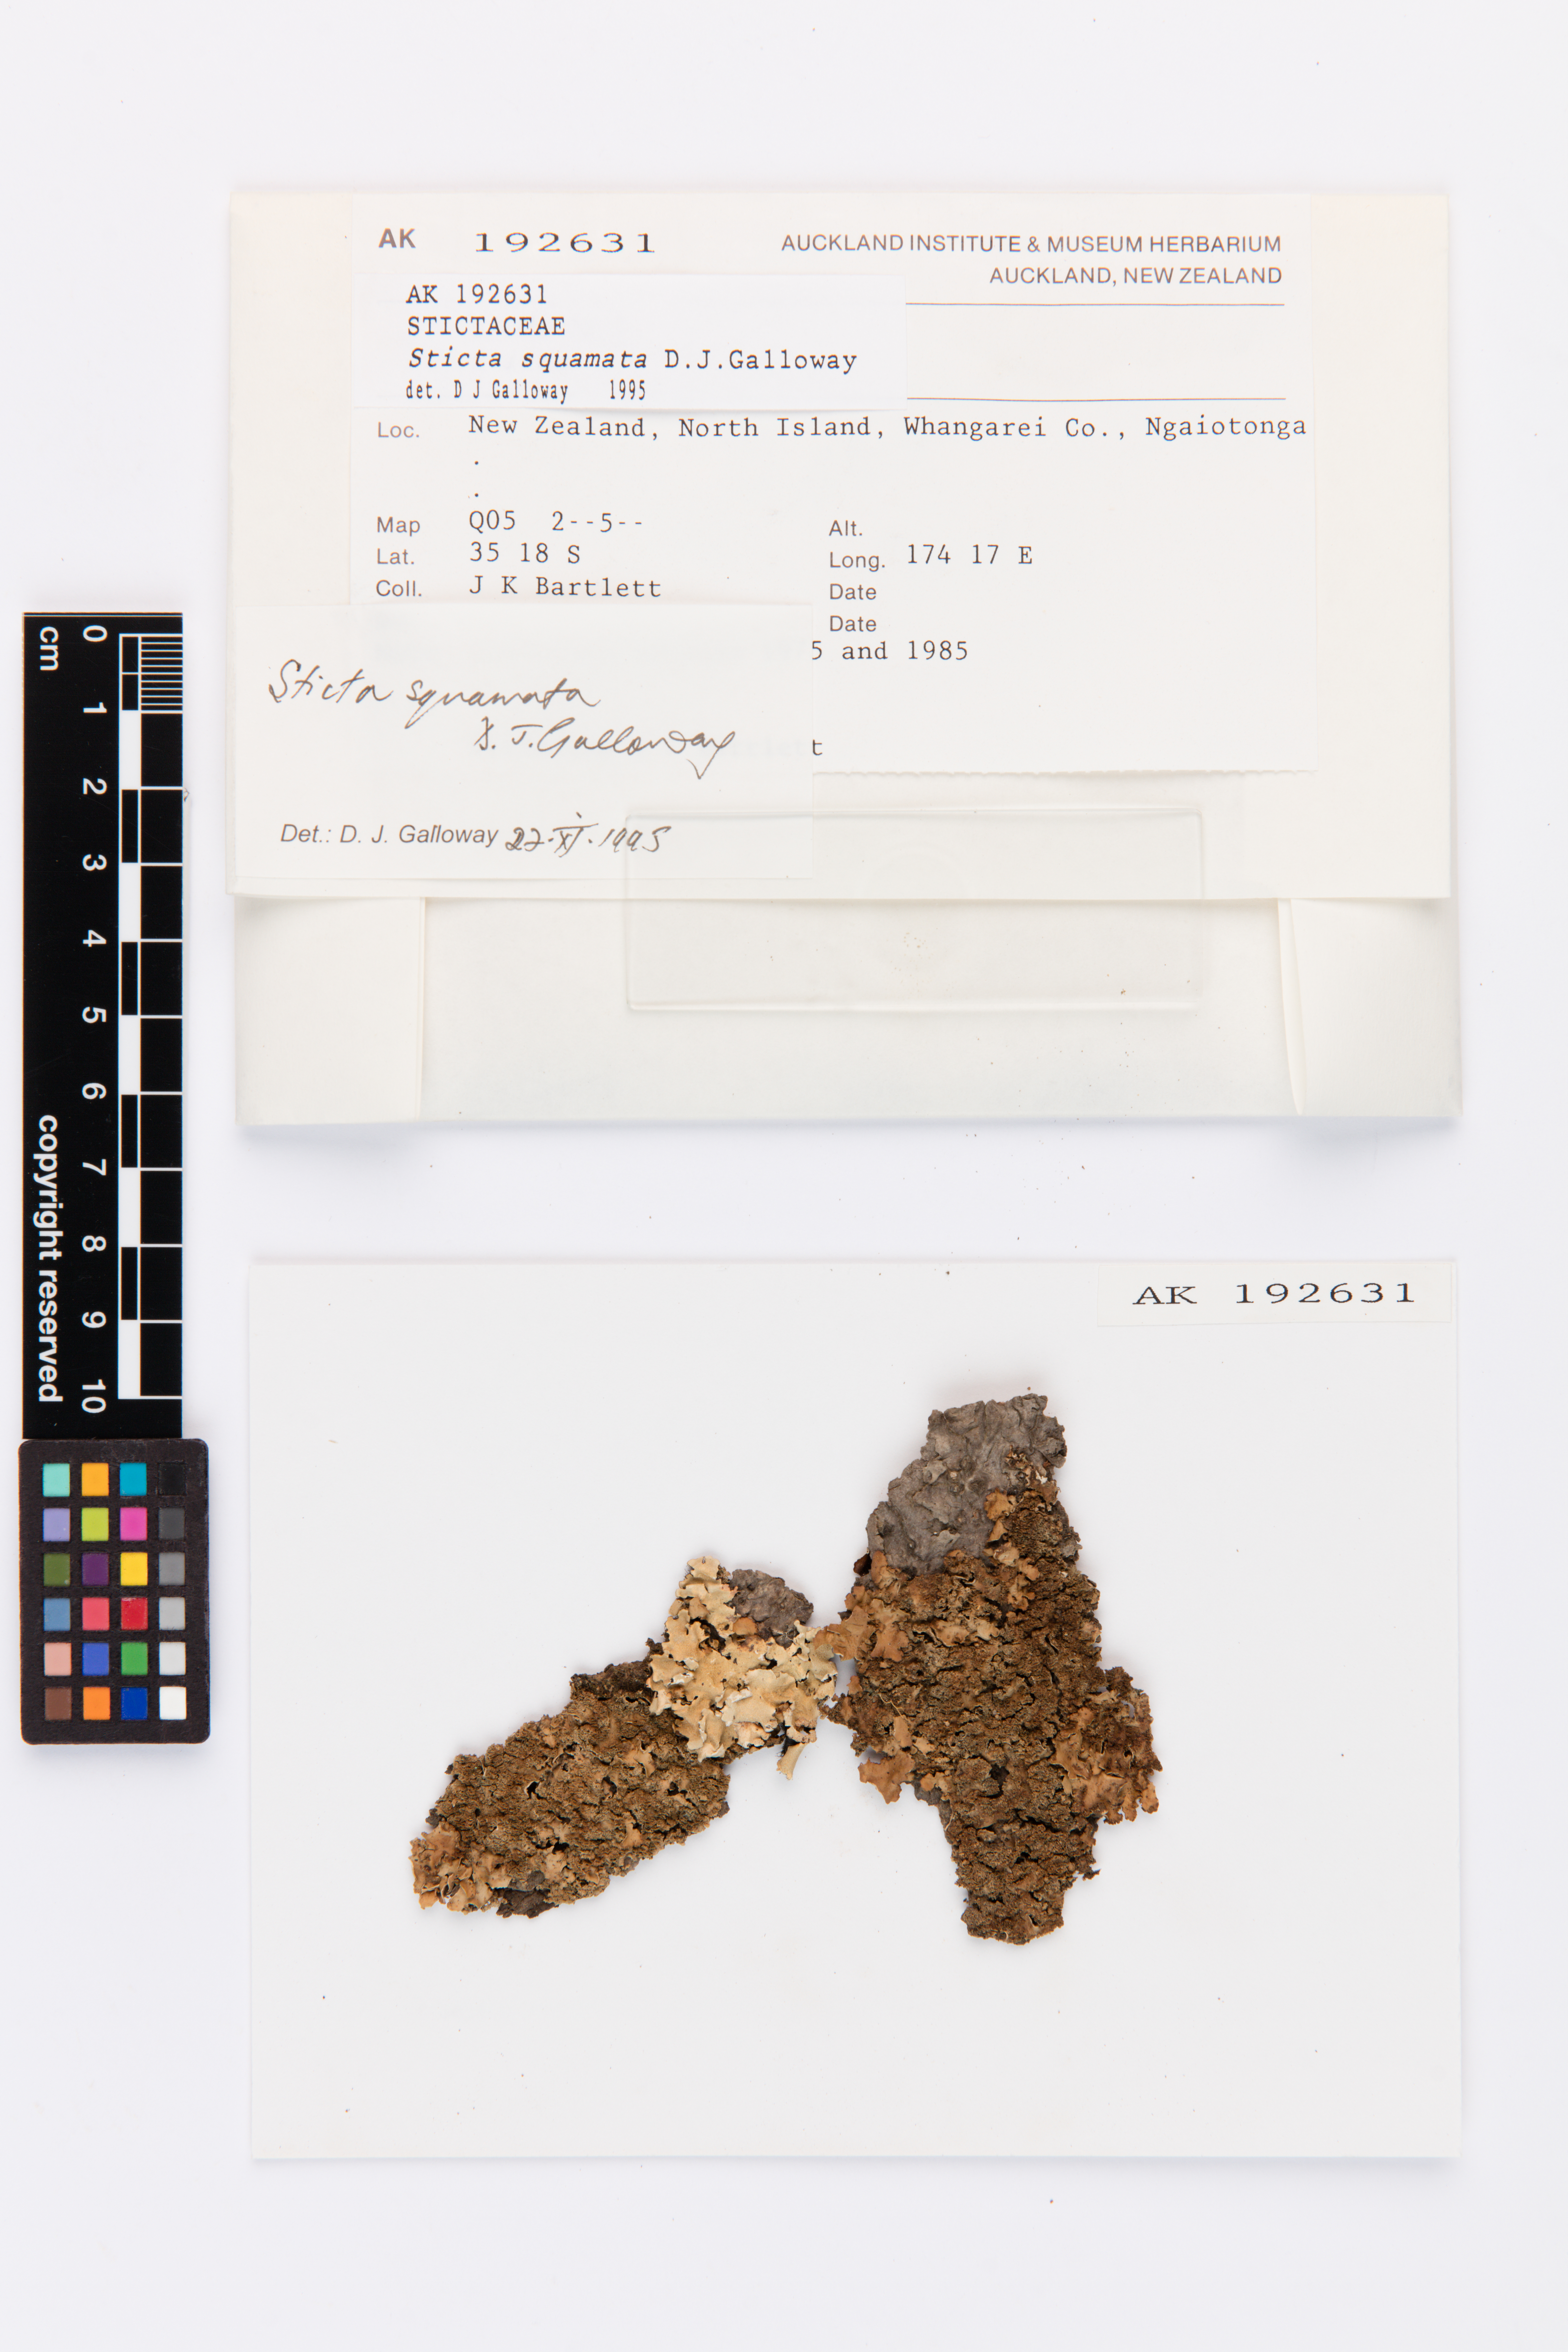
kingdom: Fungi
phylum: Ascomycota
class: Lecanoromycetes
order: Peltigerales
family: Lobariaceae
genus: Sticta
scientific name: Sticta squamata
